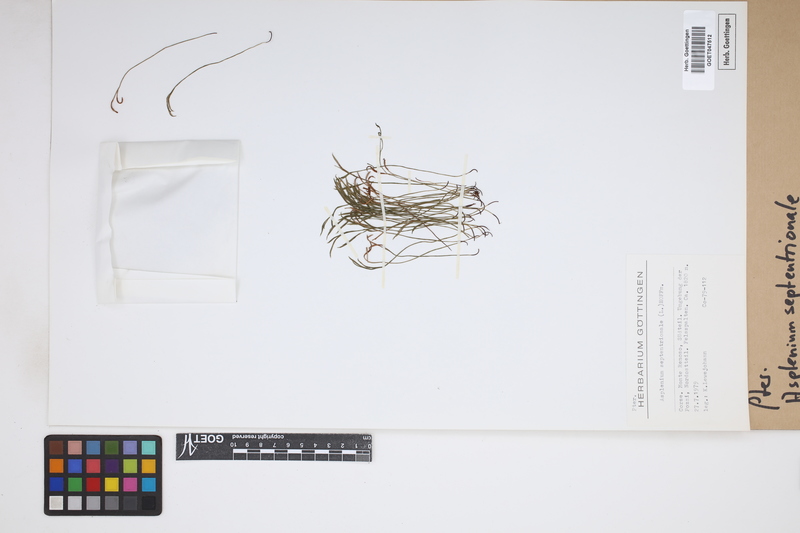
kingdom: Plantae
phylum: Tracheophyta
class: Polypodiopsida
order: Polypodiales
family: Aspleniaceae
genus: Asplenium
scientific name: Asplenium septentrionale
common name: Forked spleenwort
